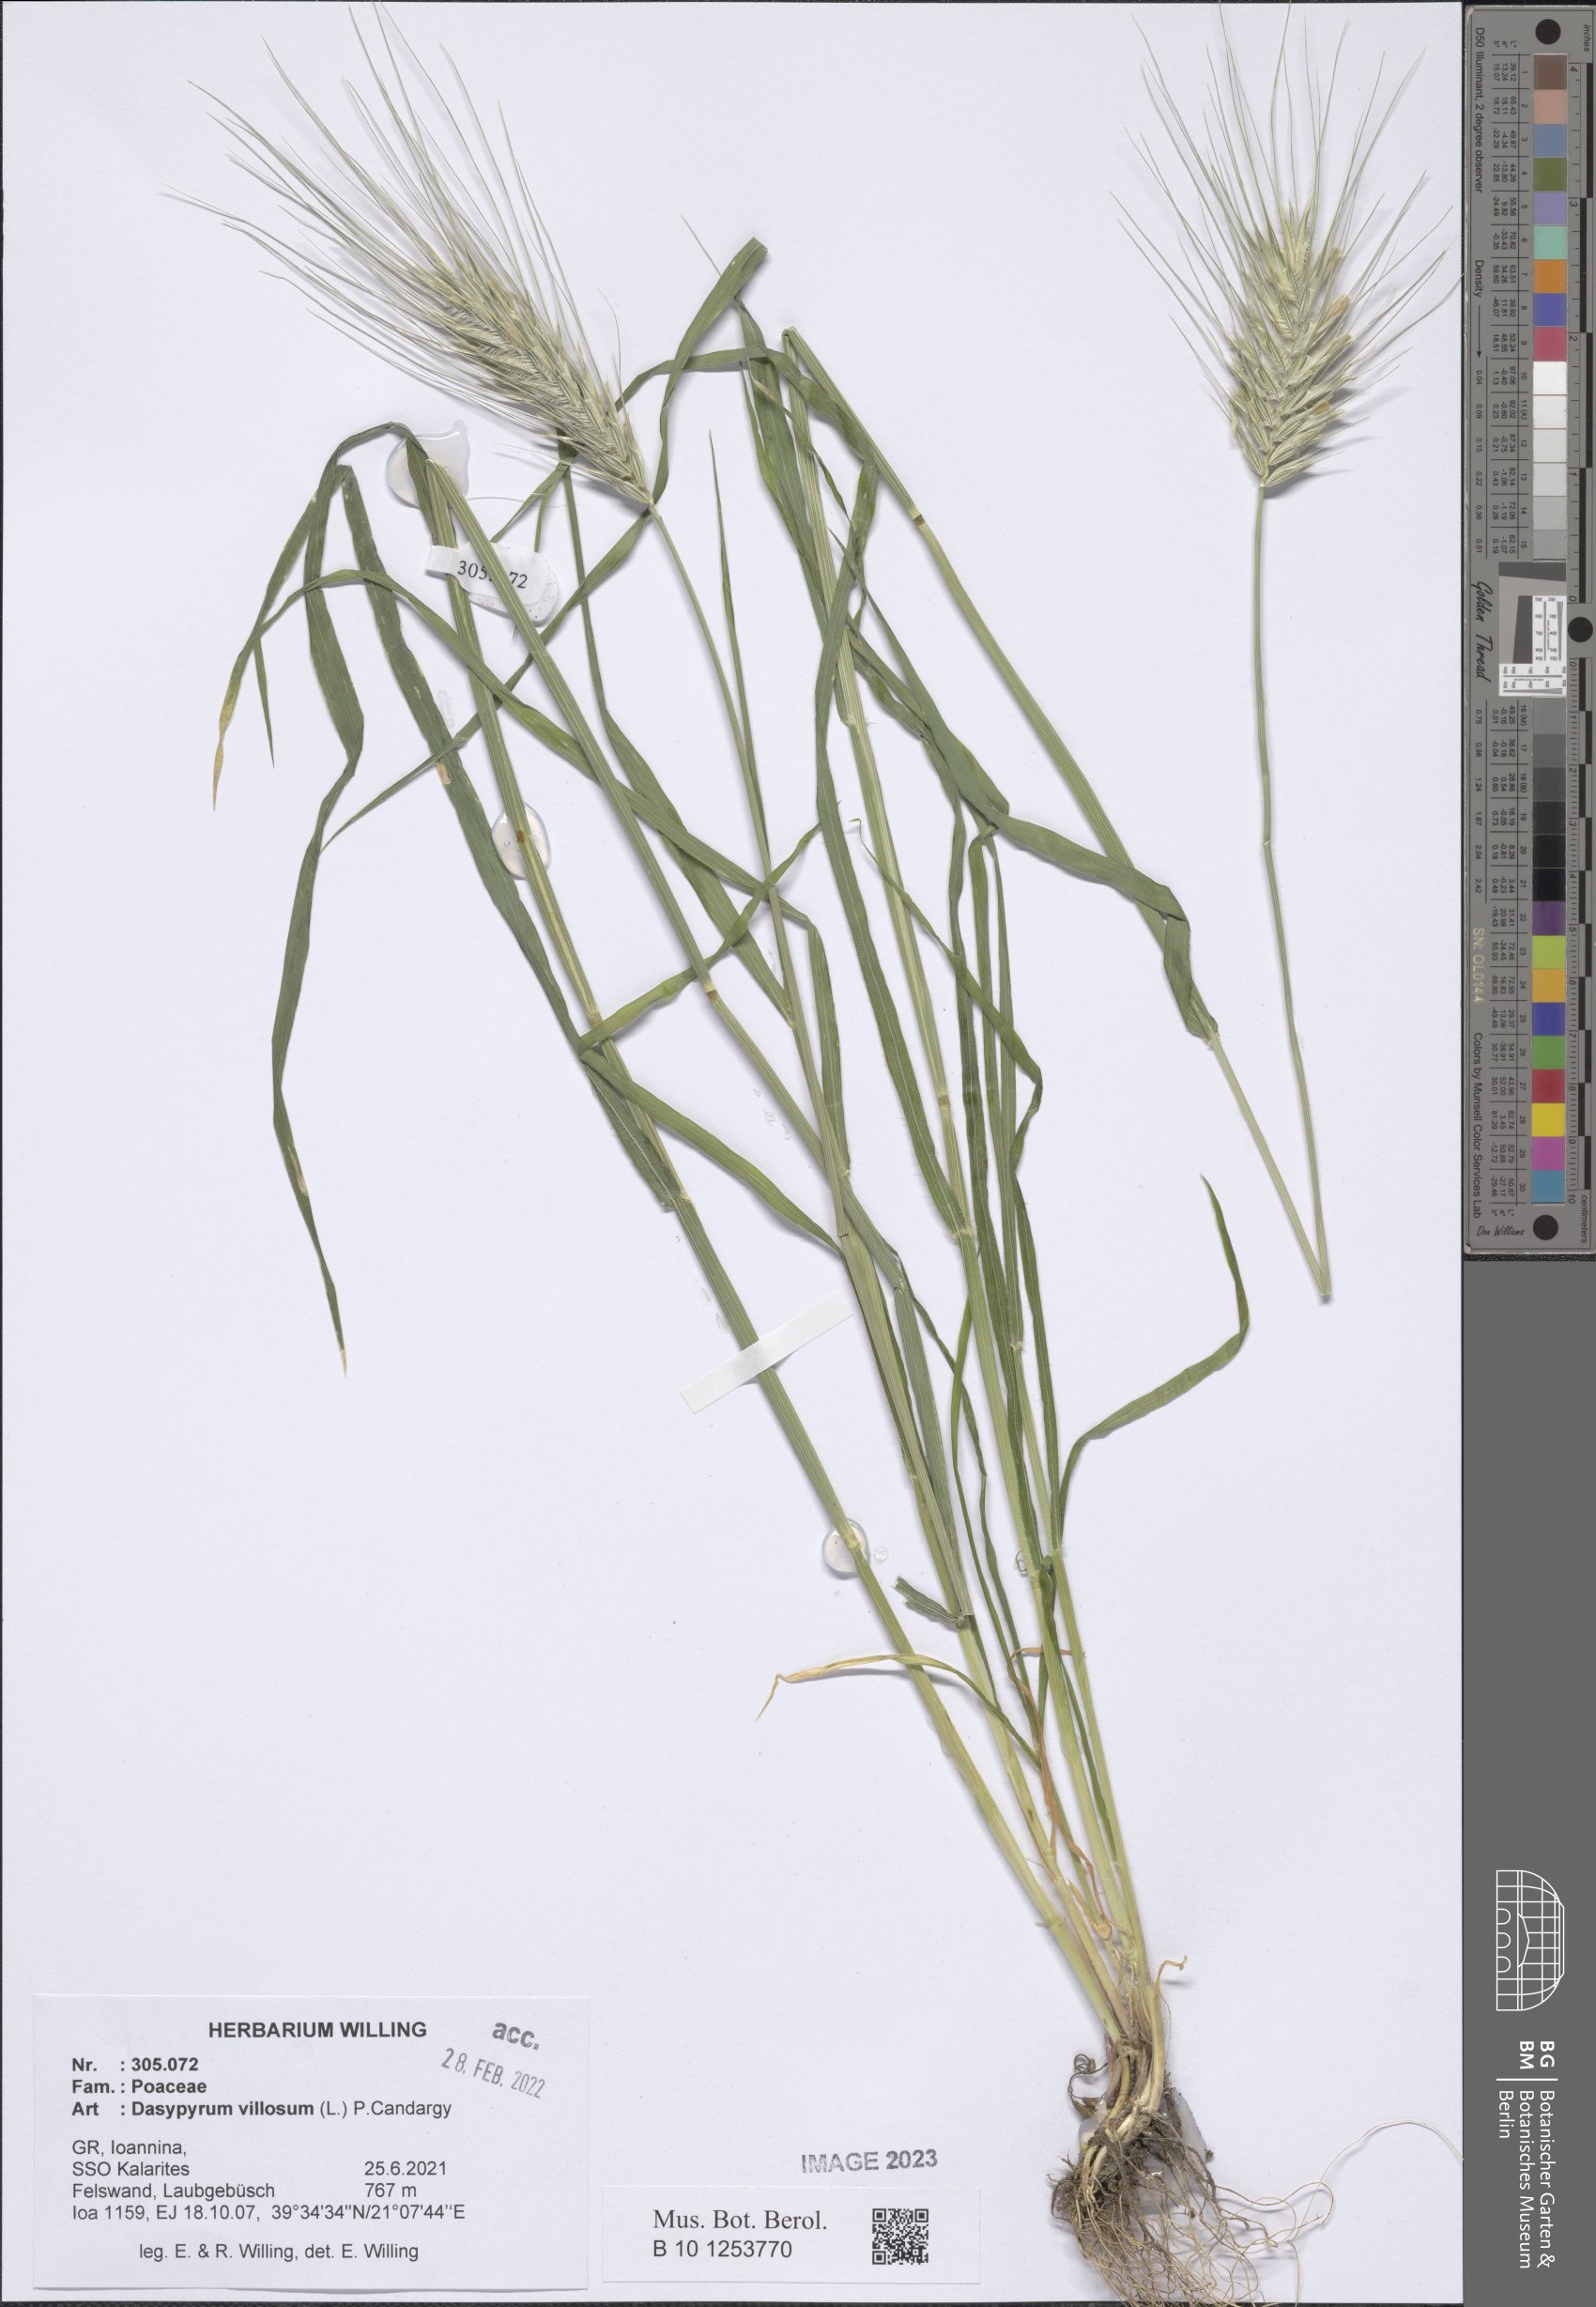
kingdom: Plantae
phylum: Tracheophyta
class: Liliopsida
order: Poales
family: Poaceae
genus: Dasypyrum
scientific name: Dasypyrum villosum
